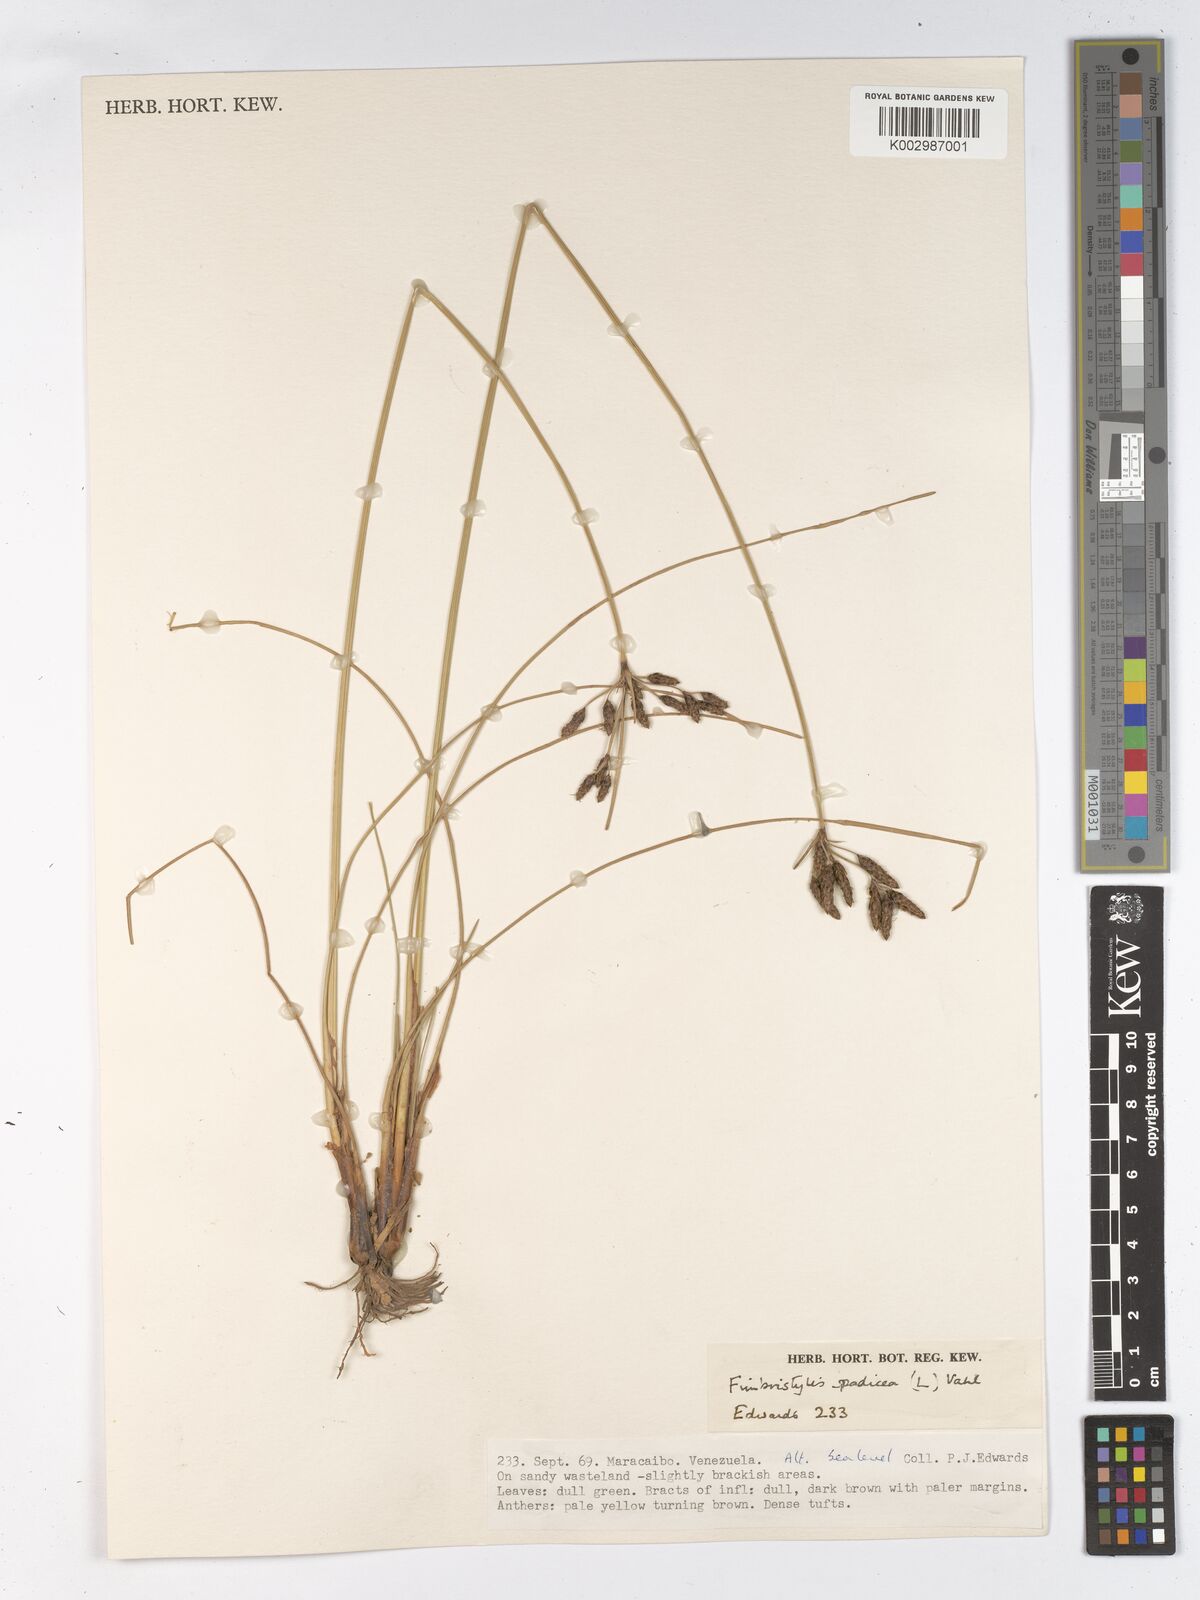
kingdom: Plantae
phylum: Tracheophyta
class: Liliopsida
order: Poales
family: Cyperaceae
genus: Fimbristylis
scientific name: Fimbristylis spadicea
